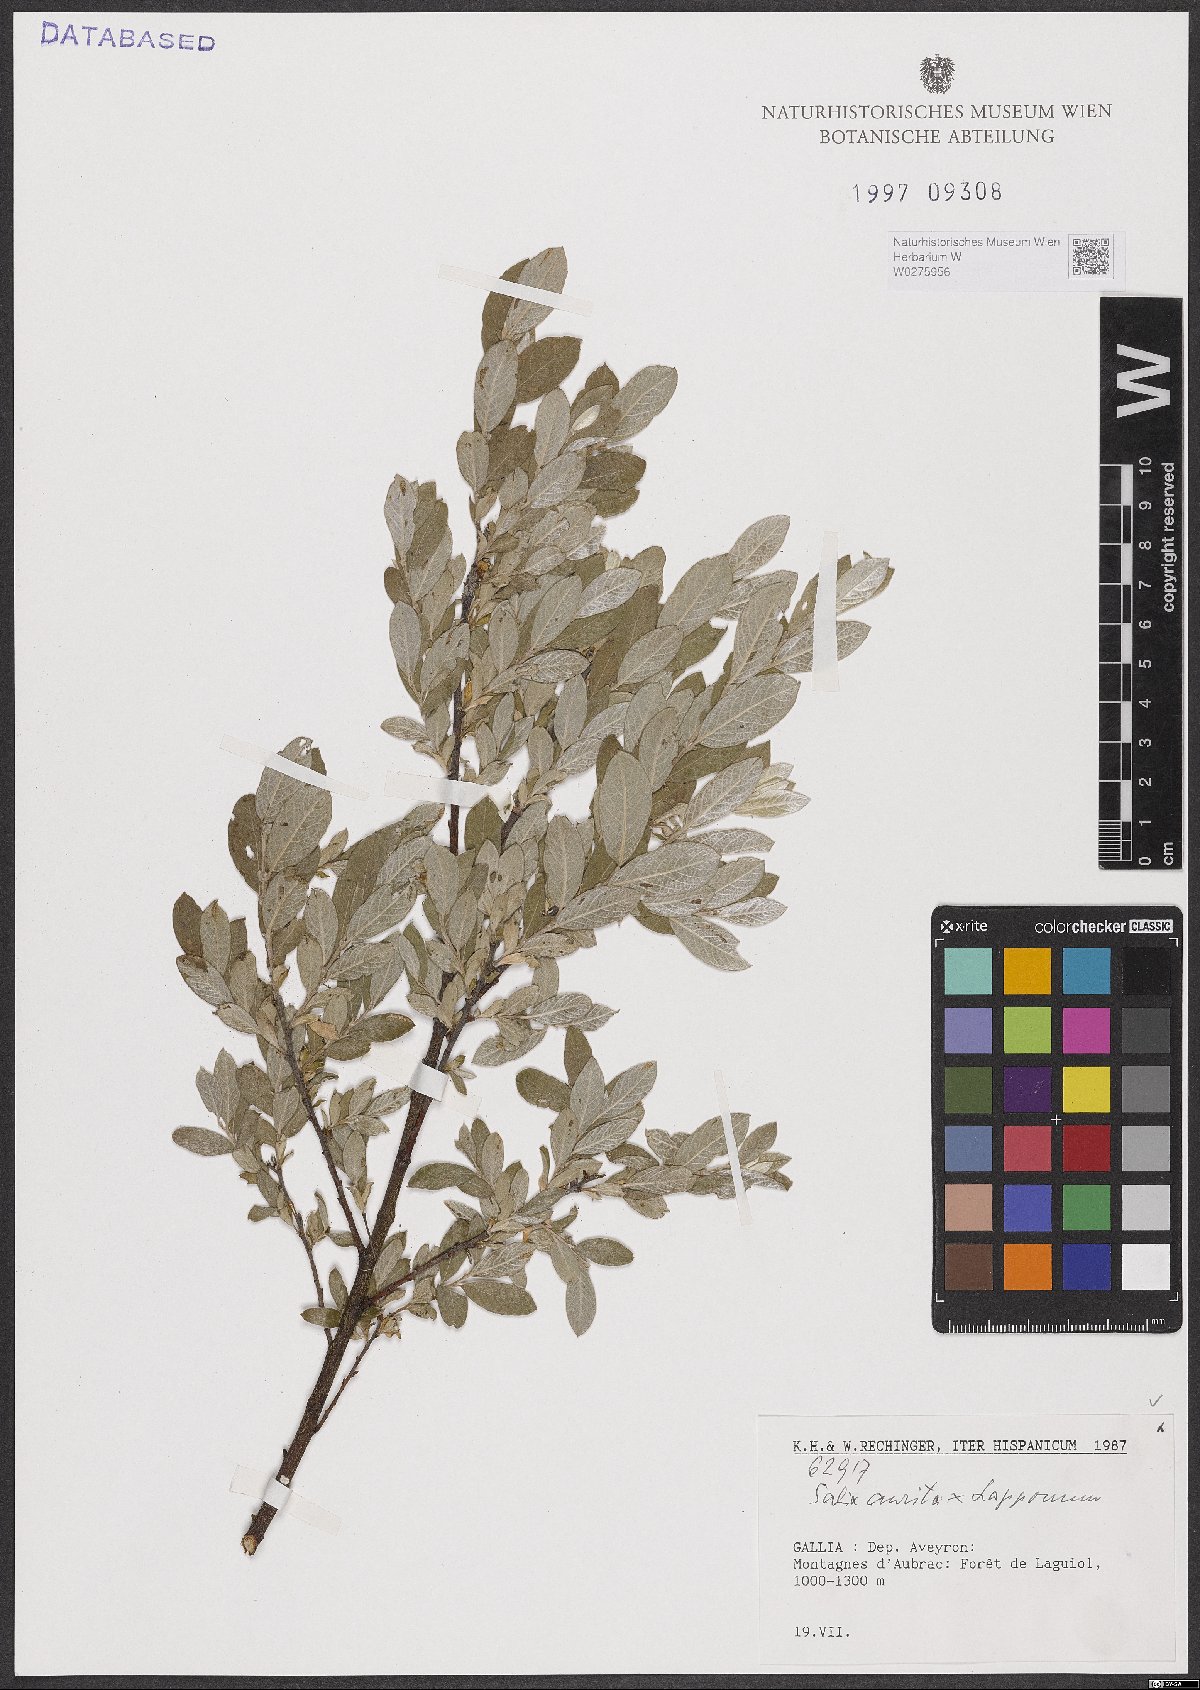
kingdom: Plantae
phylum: Tracheophyta
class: Magnoliopsida
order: Malpighiales
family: Salicaceae
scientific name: Salicaceae
